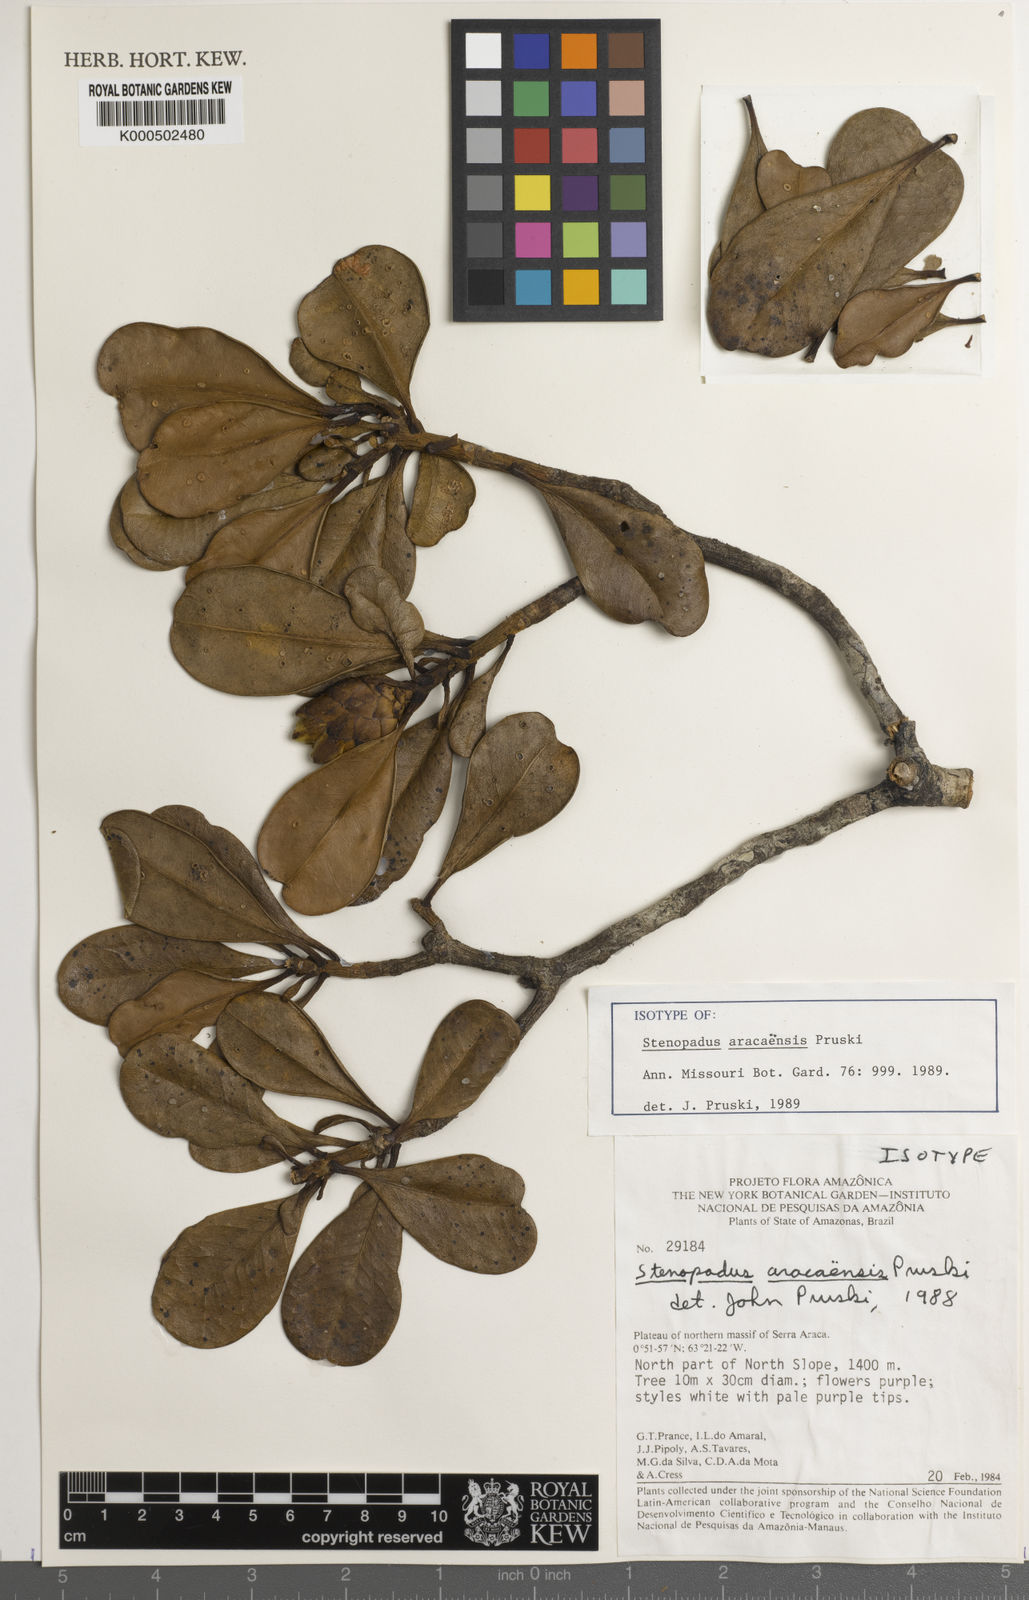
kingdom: Plantae
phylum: Tracheophyta
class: Magnoliopsida
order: Asterales
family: Asteraceae
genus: Stenopadus
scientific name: Stenopadus
